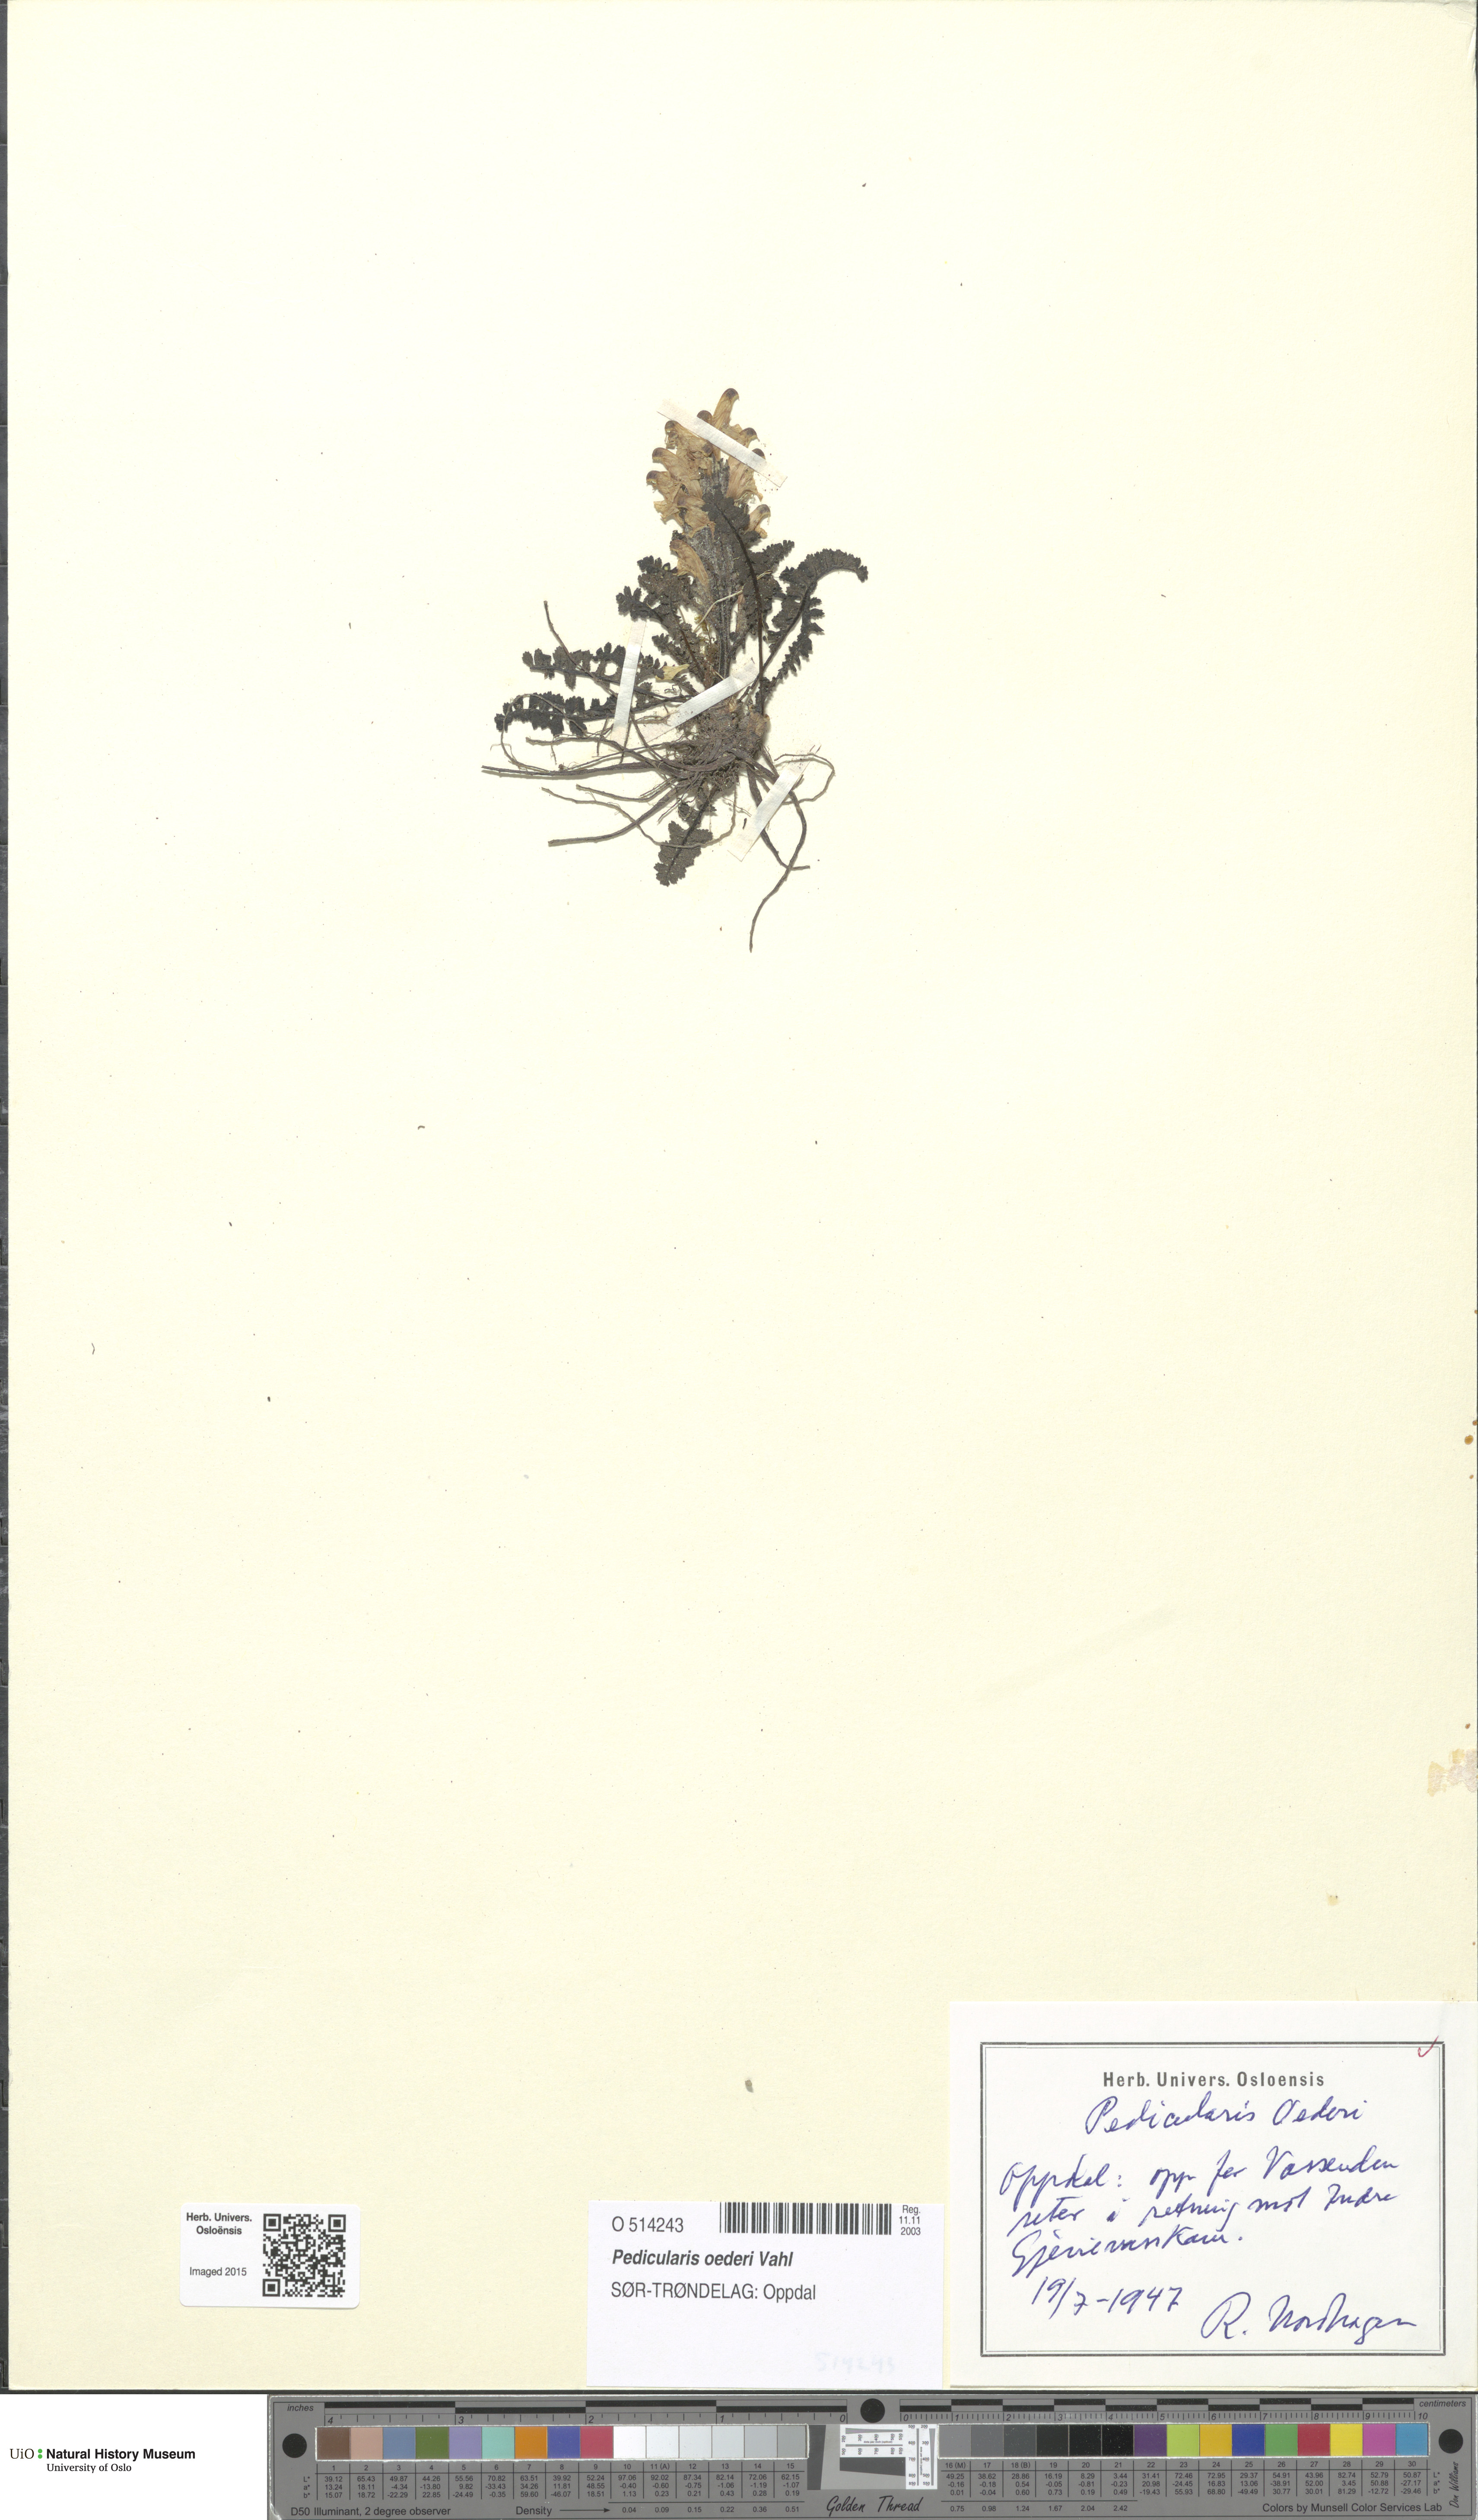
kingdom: Plantae
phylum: Tracheophyta
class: Magnoliopsida
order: Lamiales
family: Orobanchaceae
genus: Pedicularis
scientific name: Pedicularis oederi
